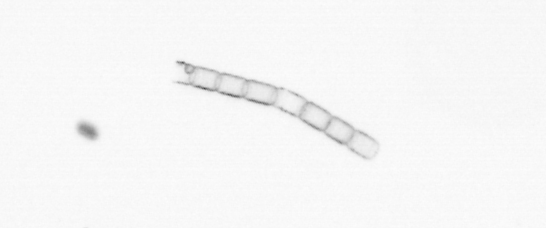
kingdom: Chromista
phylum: Ochrophyta
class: Bacillariophyceae
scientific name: Bacillariophyceae
